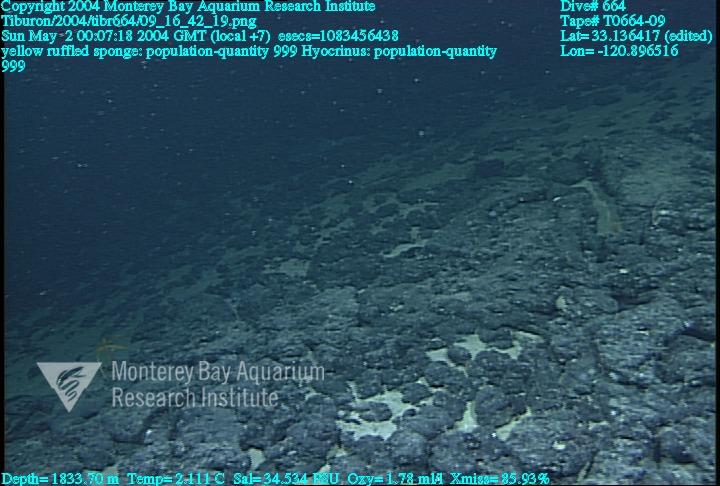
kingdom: Animalia
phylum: Porifera
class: Hexactinellida
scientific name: Hexactinellida
